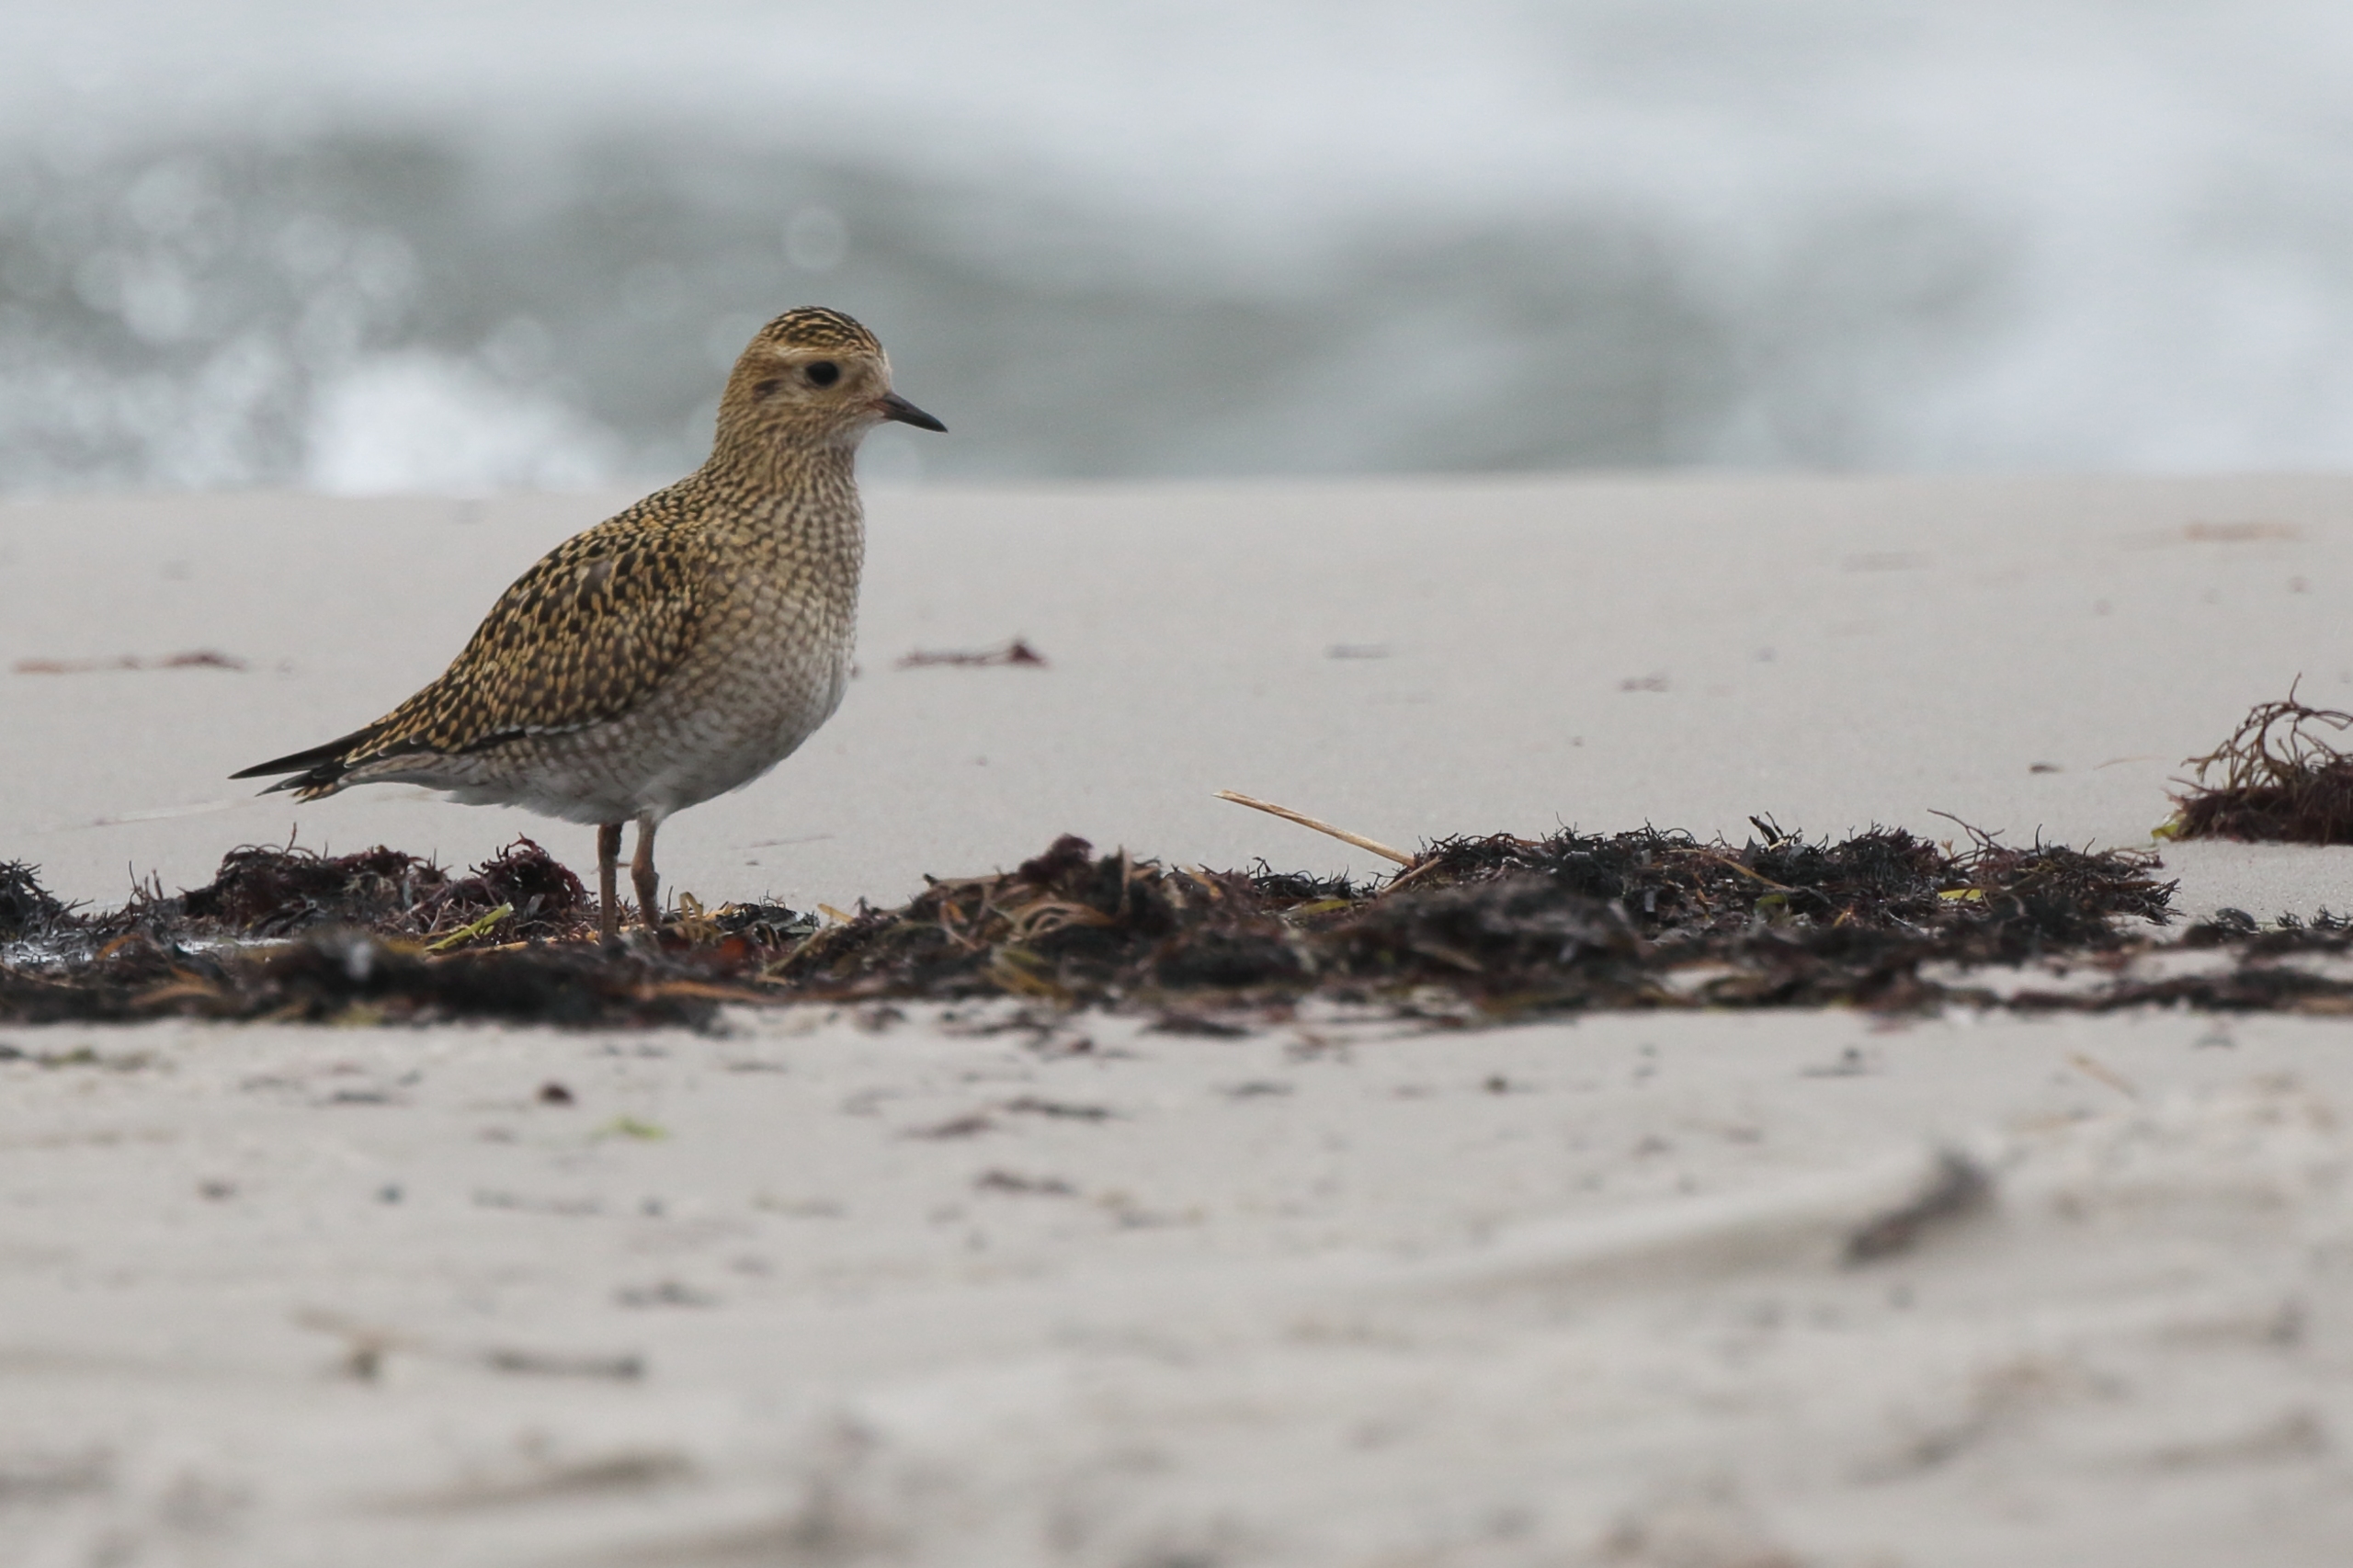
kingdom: Animalia
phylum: Chordata
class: Aves
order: Charadriiformes
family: Charadriidae
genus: Pluvialis
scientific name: Pluvialis apricaria
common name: Hjejle
